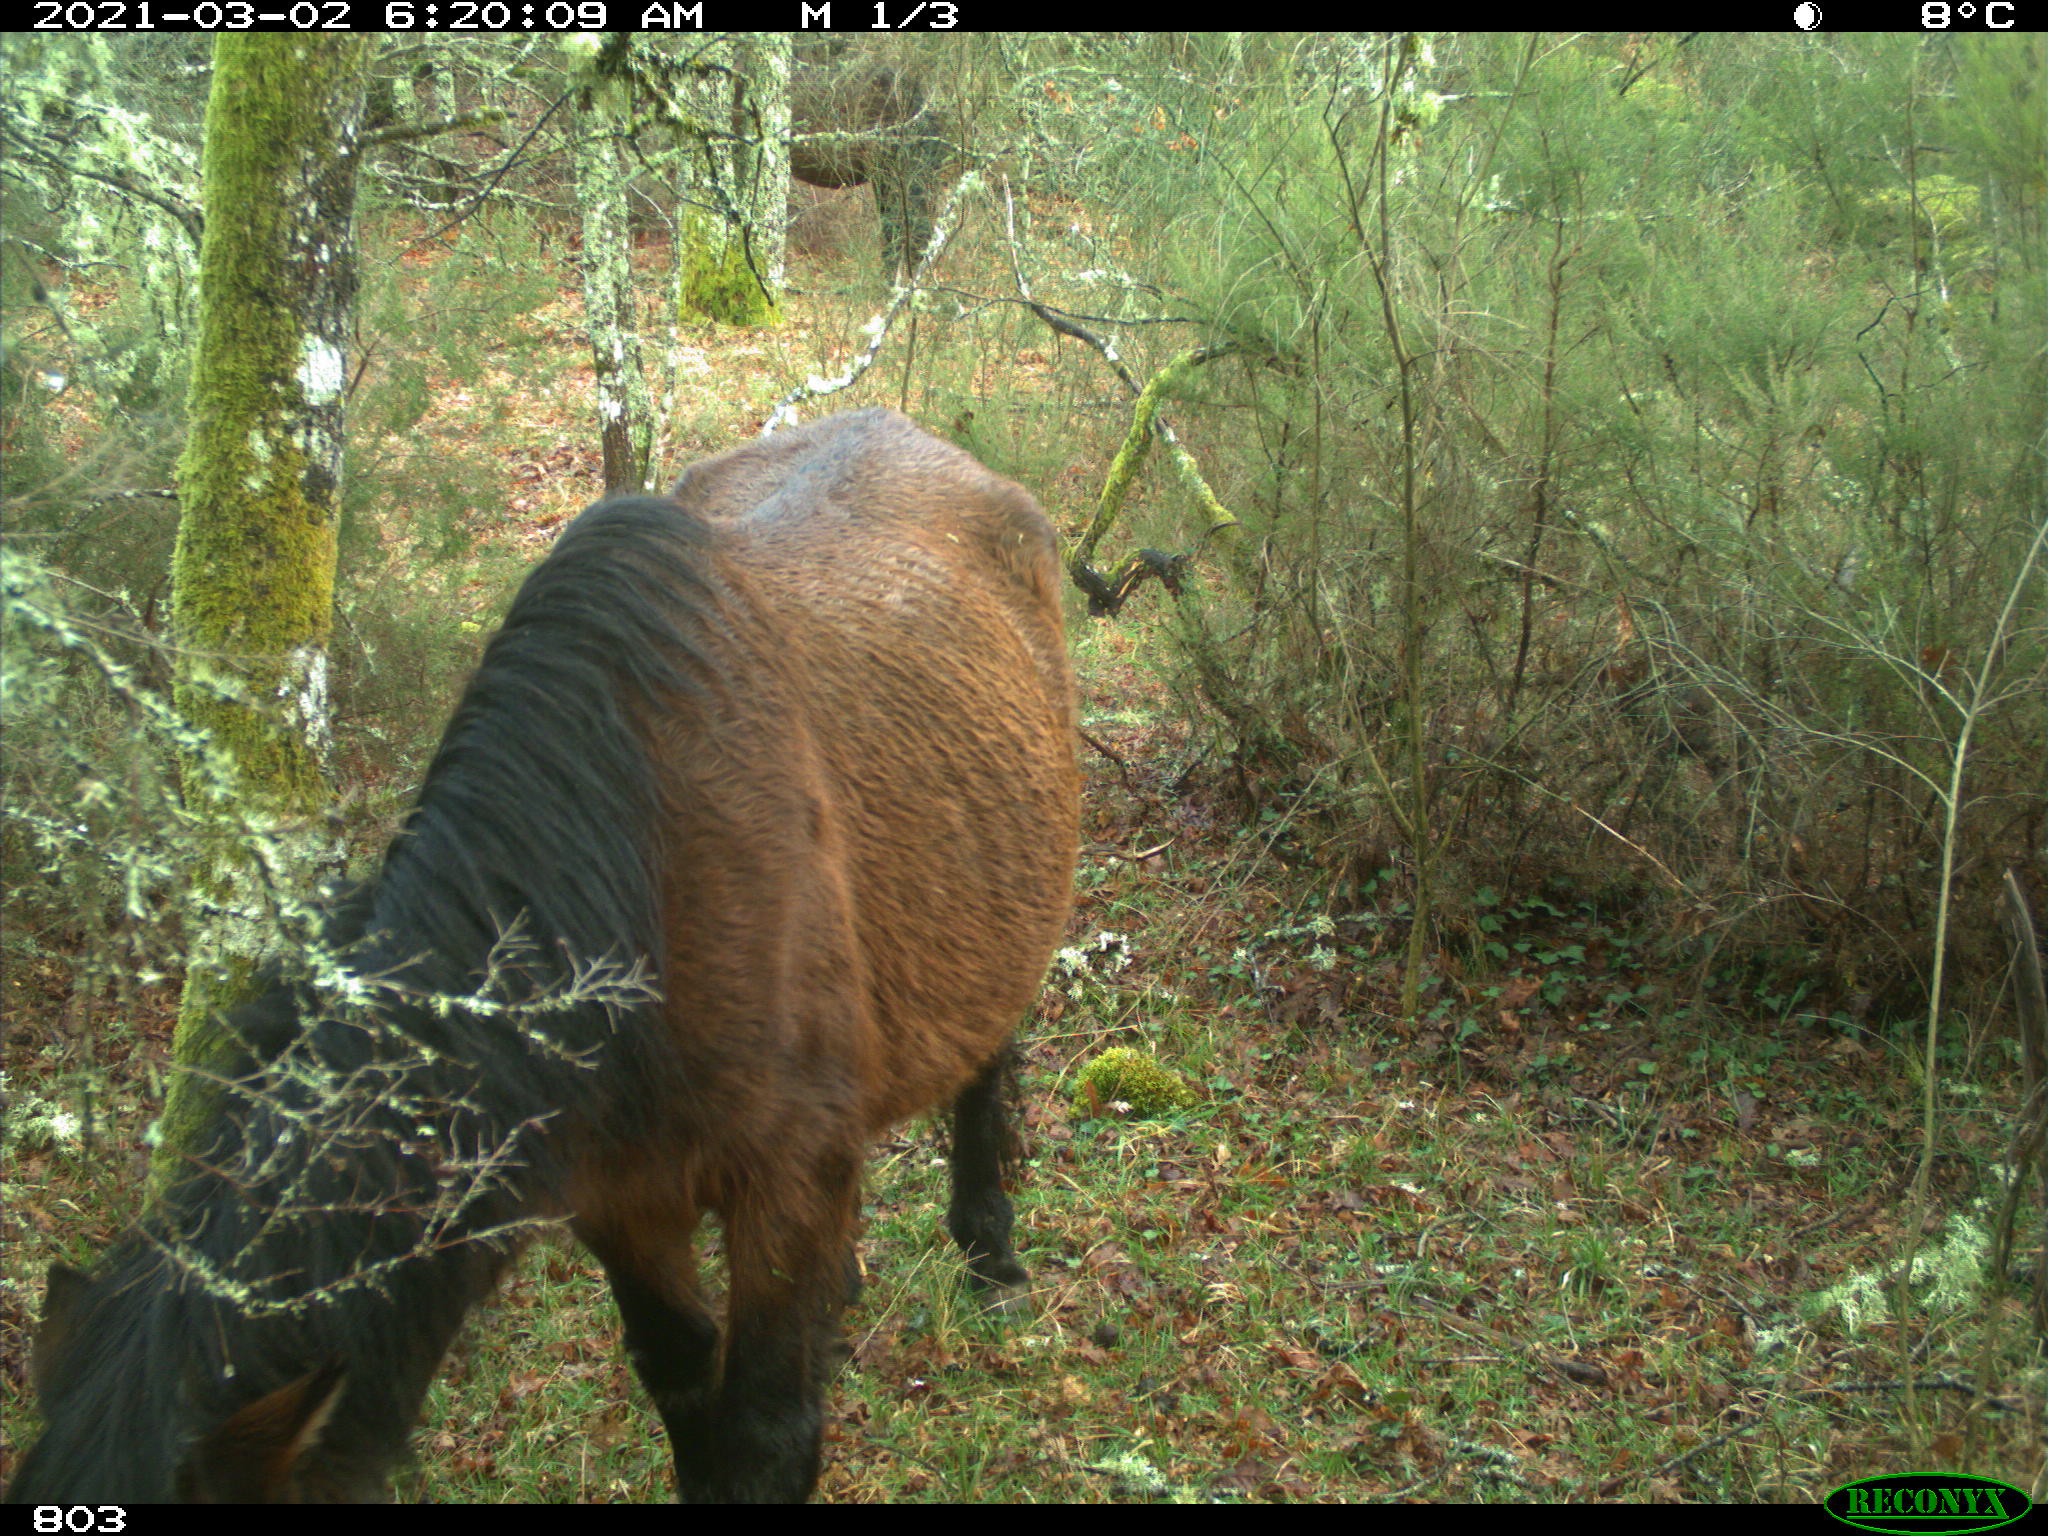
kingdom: Animalia
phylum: Chordata
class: Mammalia
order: Perissodactyla
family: Equidae
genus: Equus
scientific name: Equus caballus
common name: Horse
